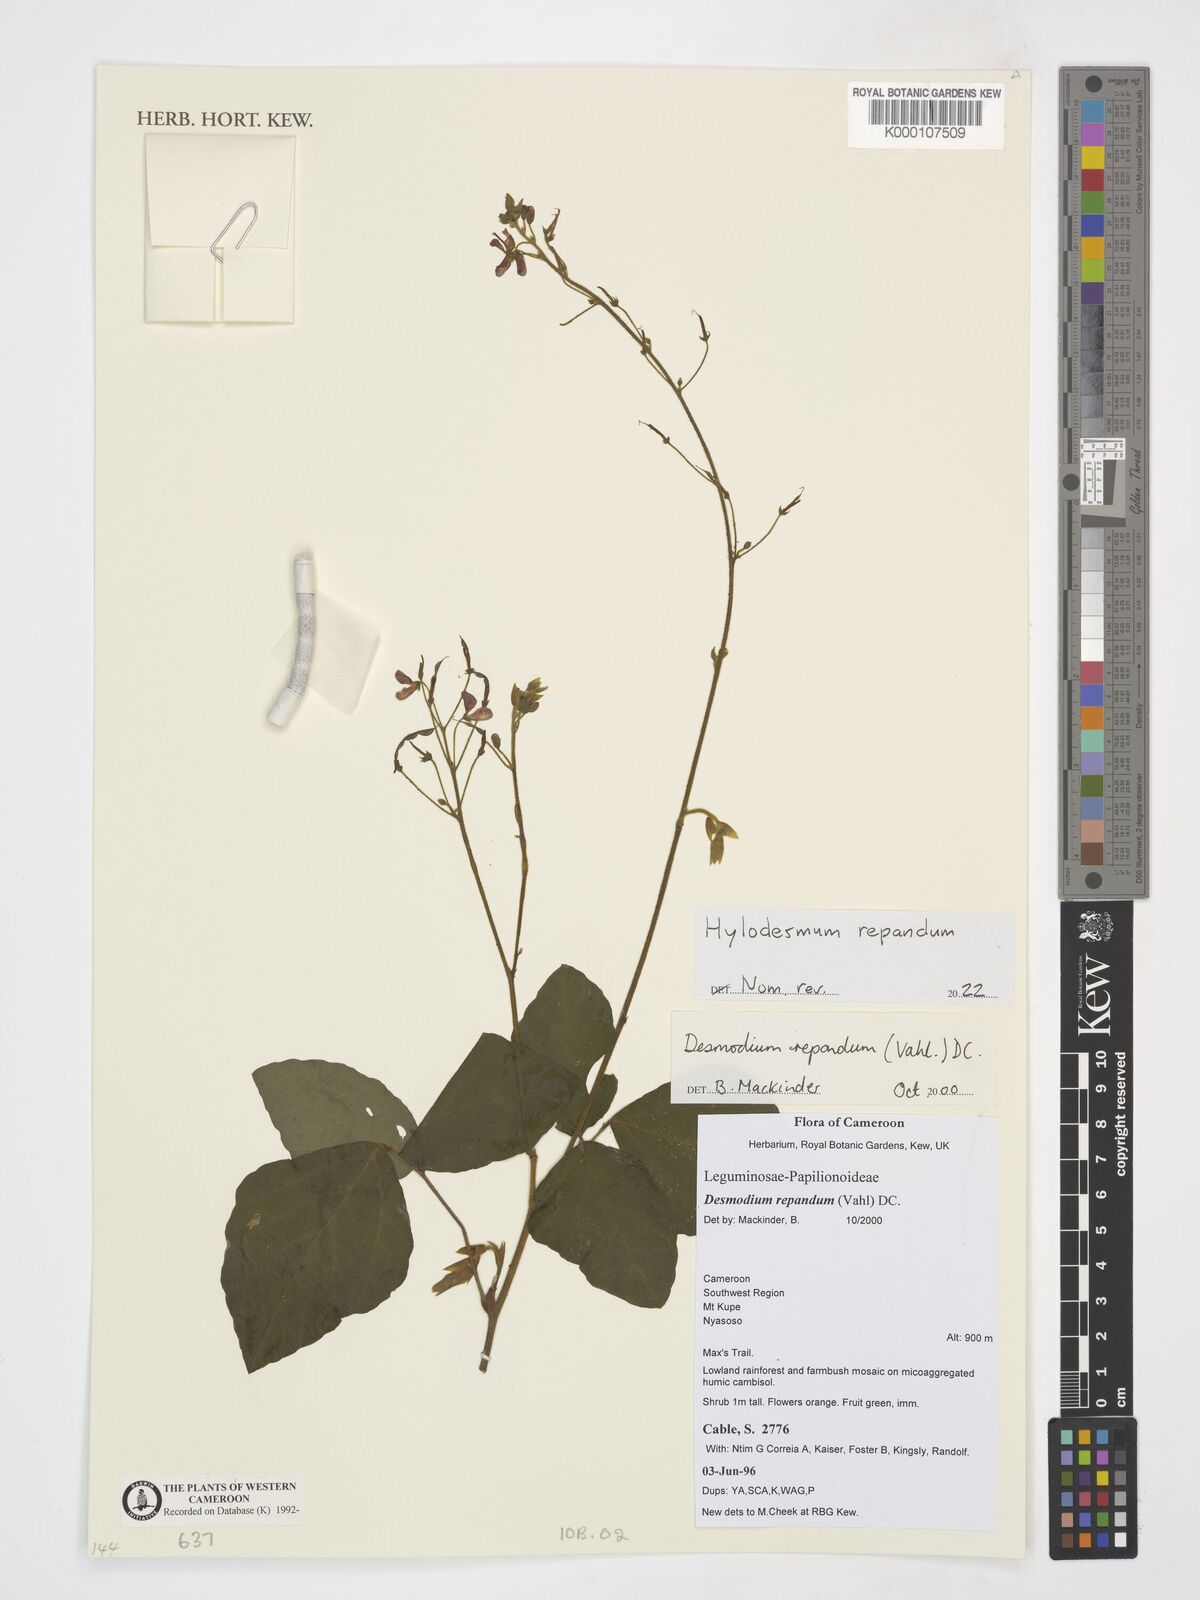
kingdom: Plantae
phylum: Tracheophyta
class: Magnoliopsida
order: Fabales
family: Fabaceae
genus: Desmodium
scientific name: Desmodium
